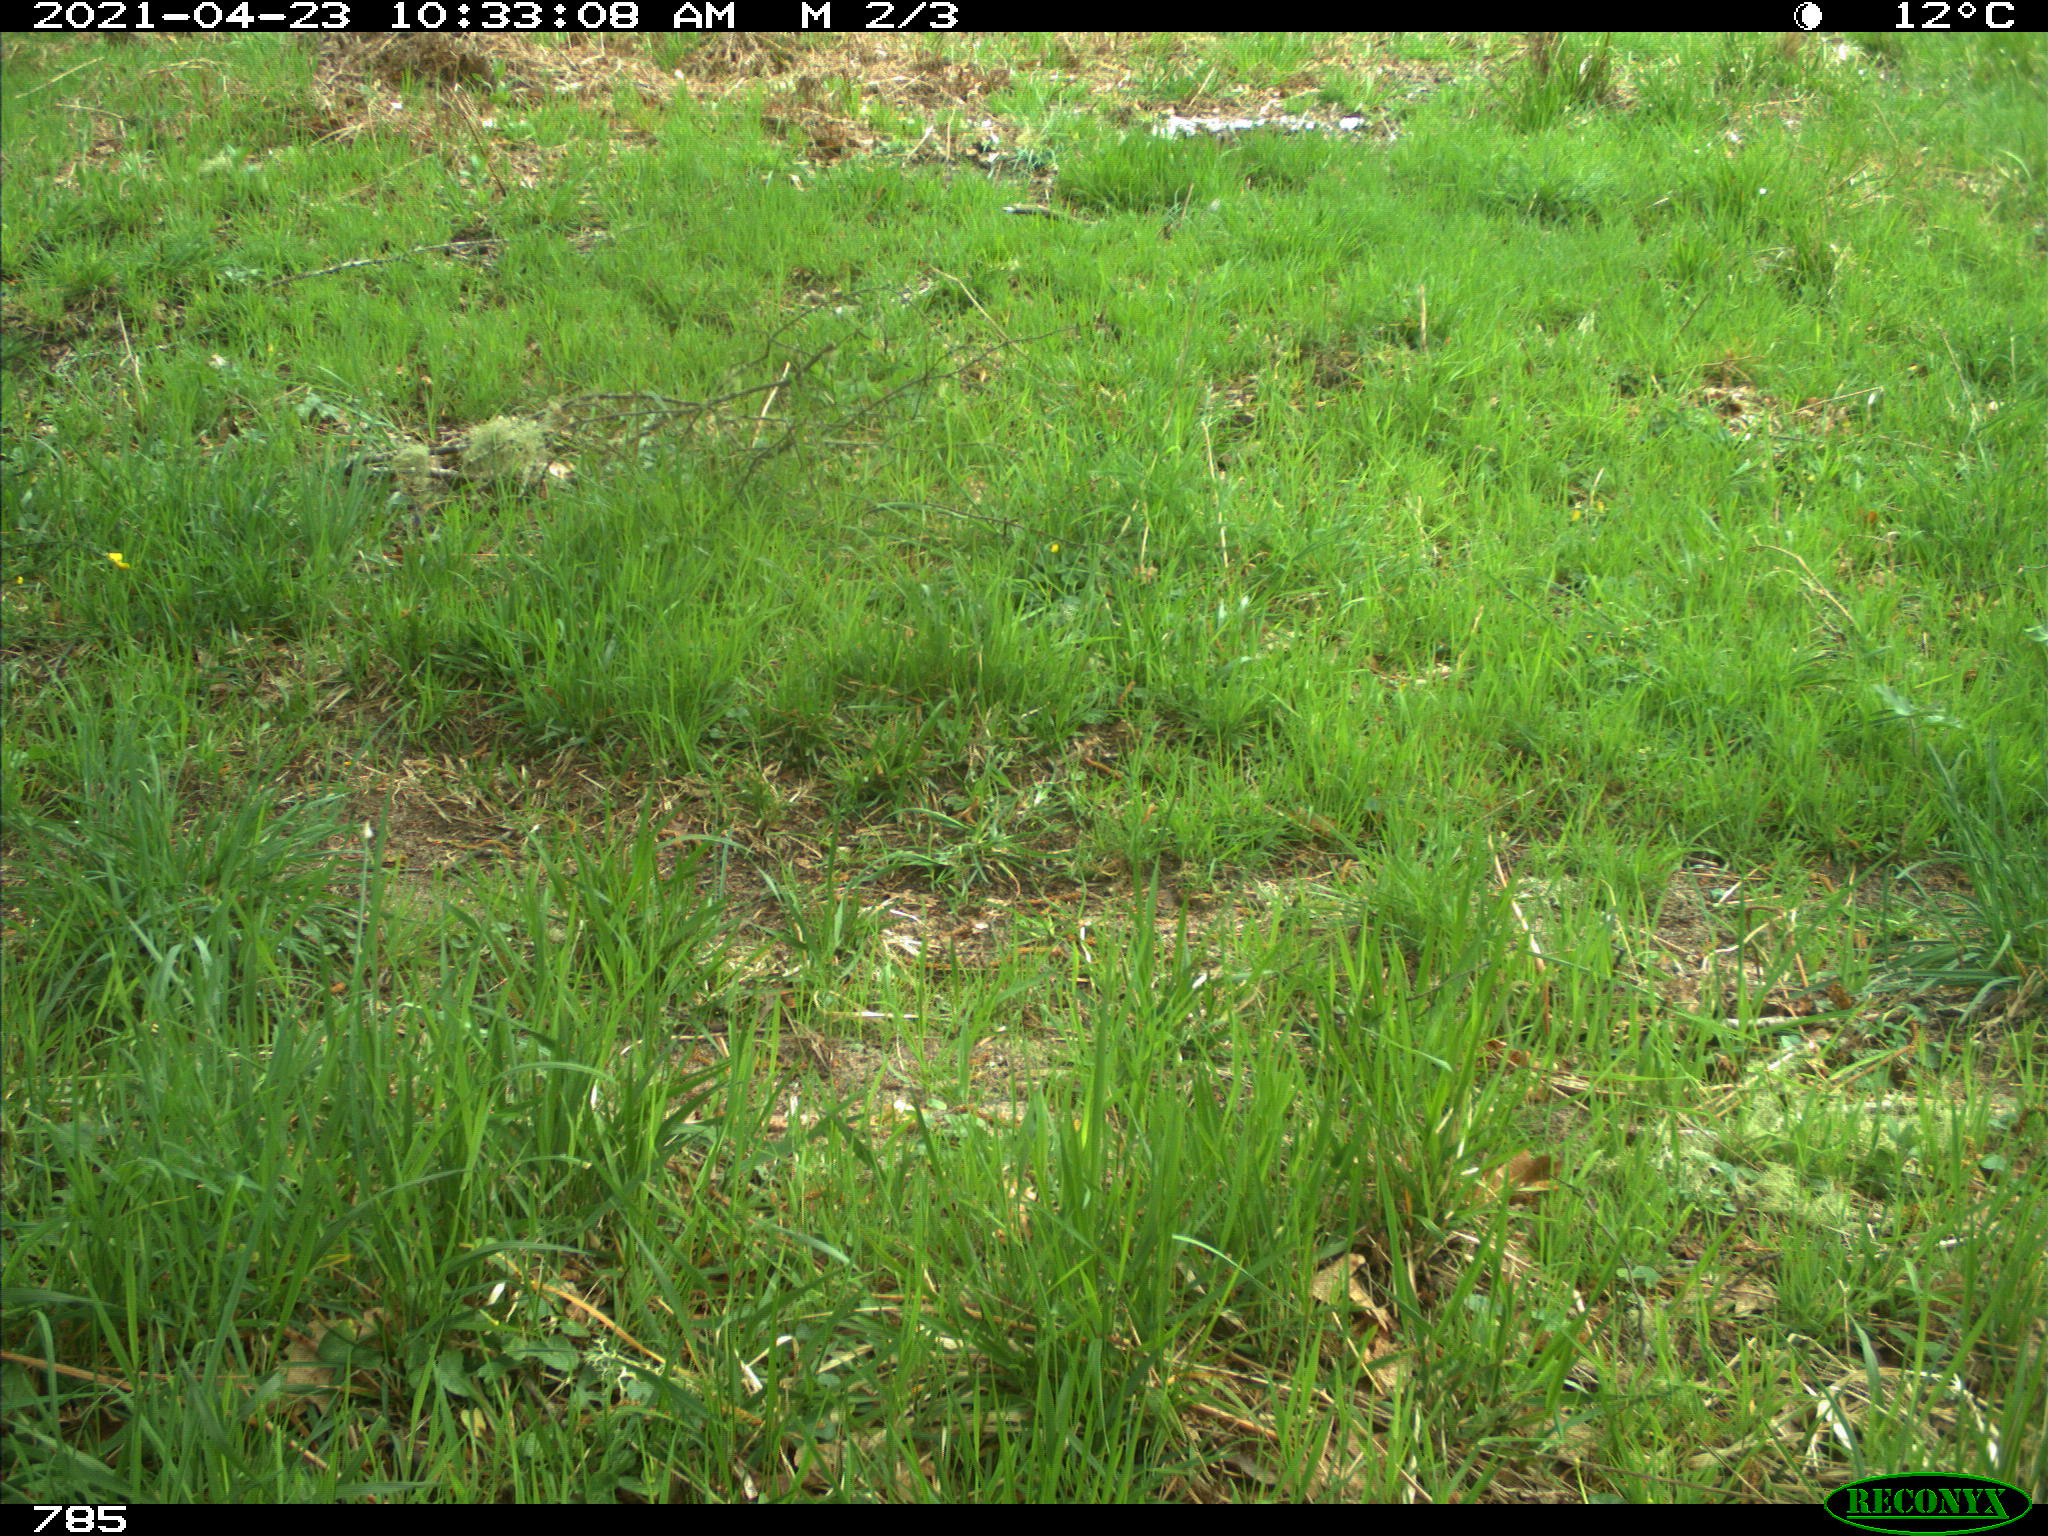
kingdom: Animalia
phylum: Chordata
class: Mammalia
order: Artiodactyla
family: Cervidae
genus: Capreolus
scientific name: Capreolus capreolus
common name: Western roe deer
